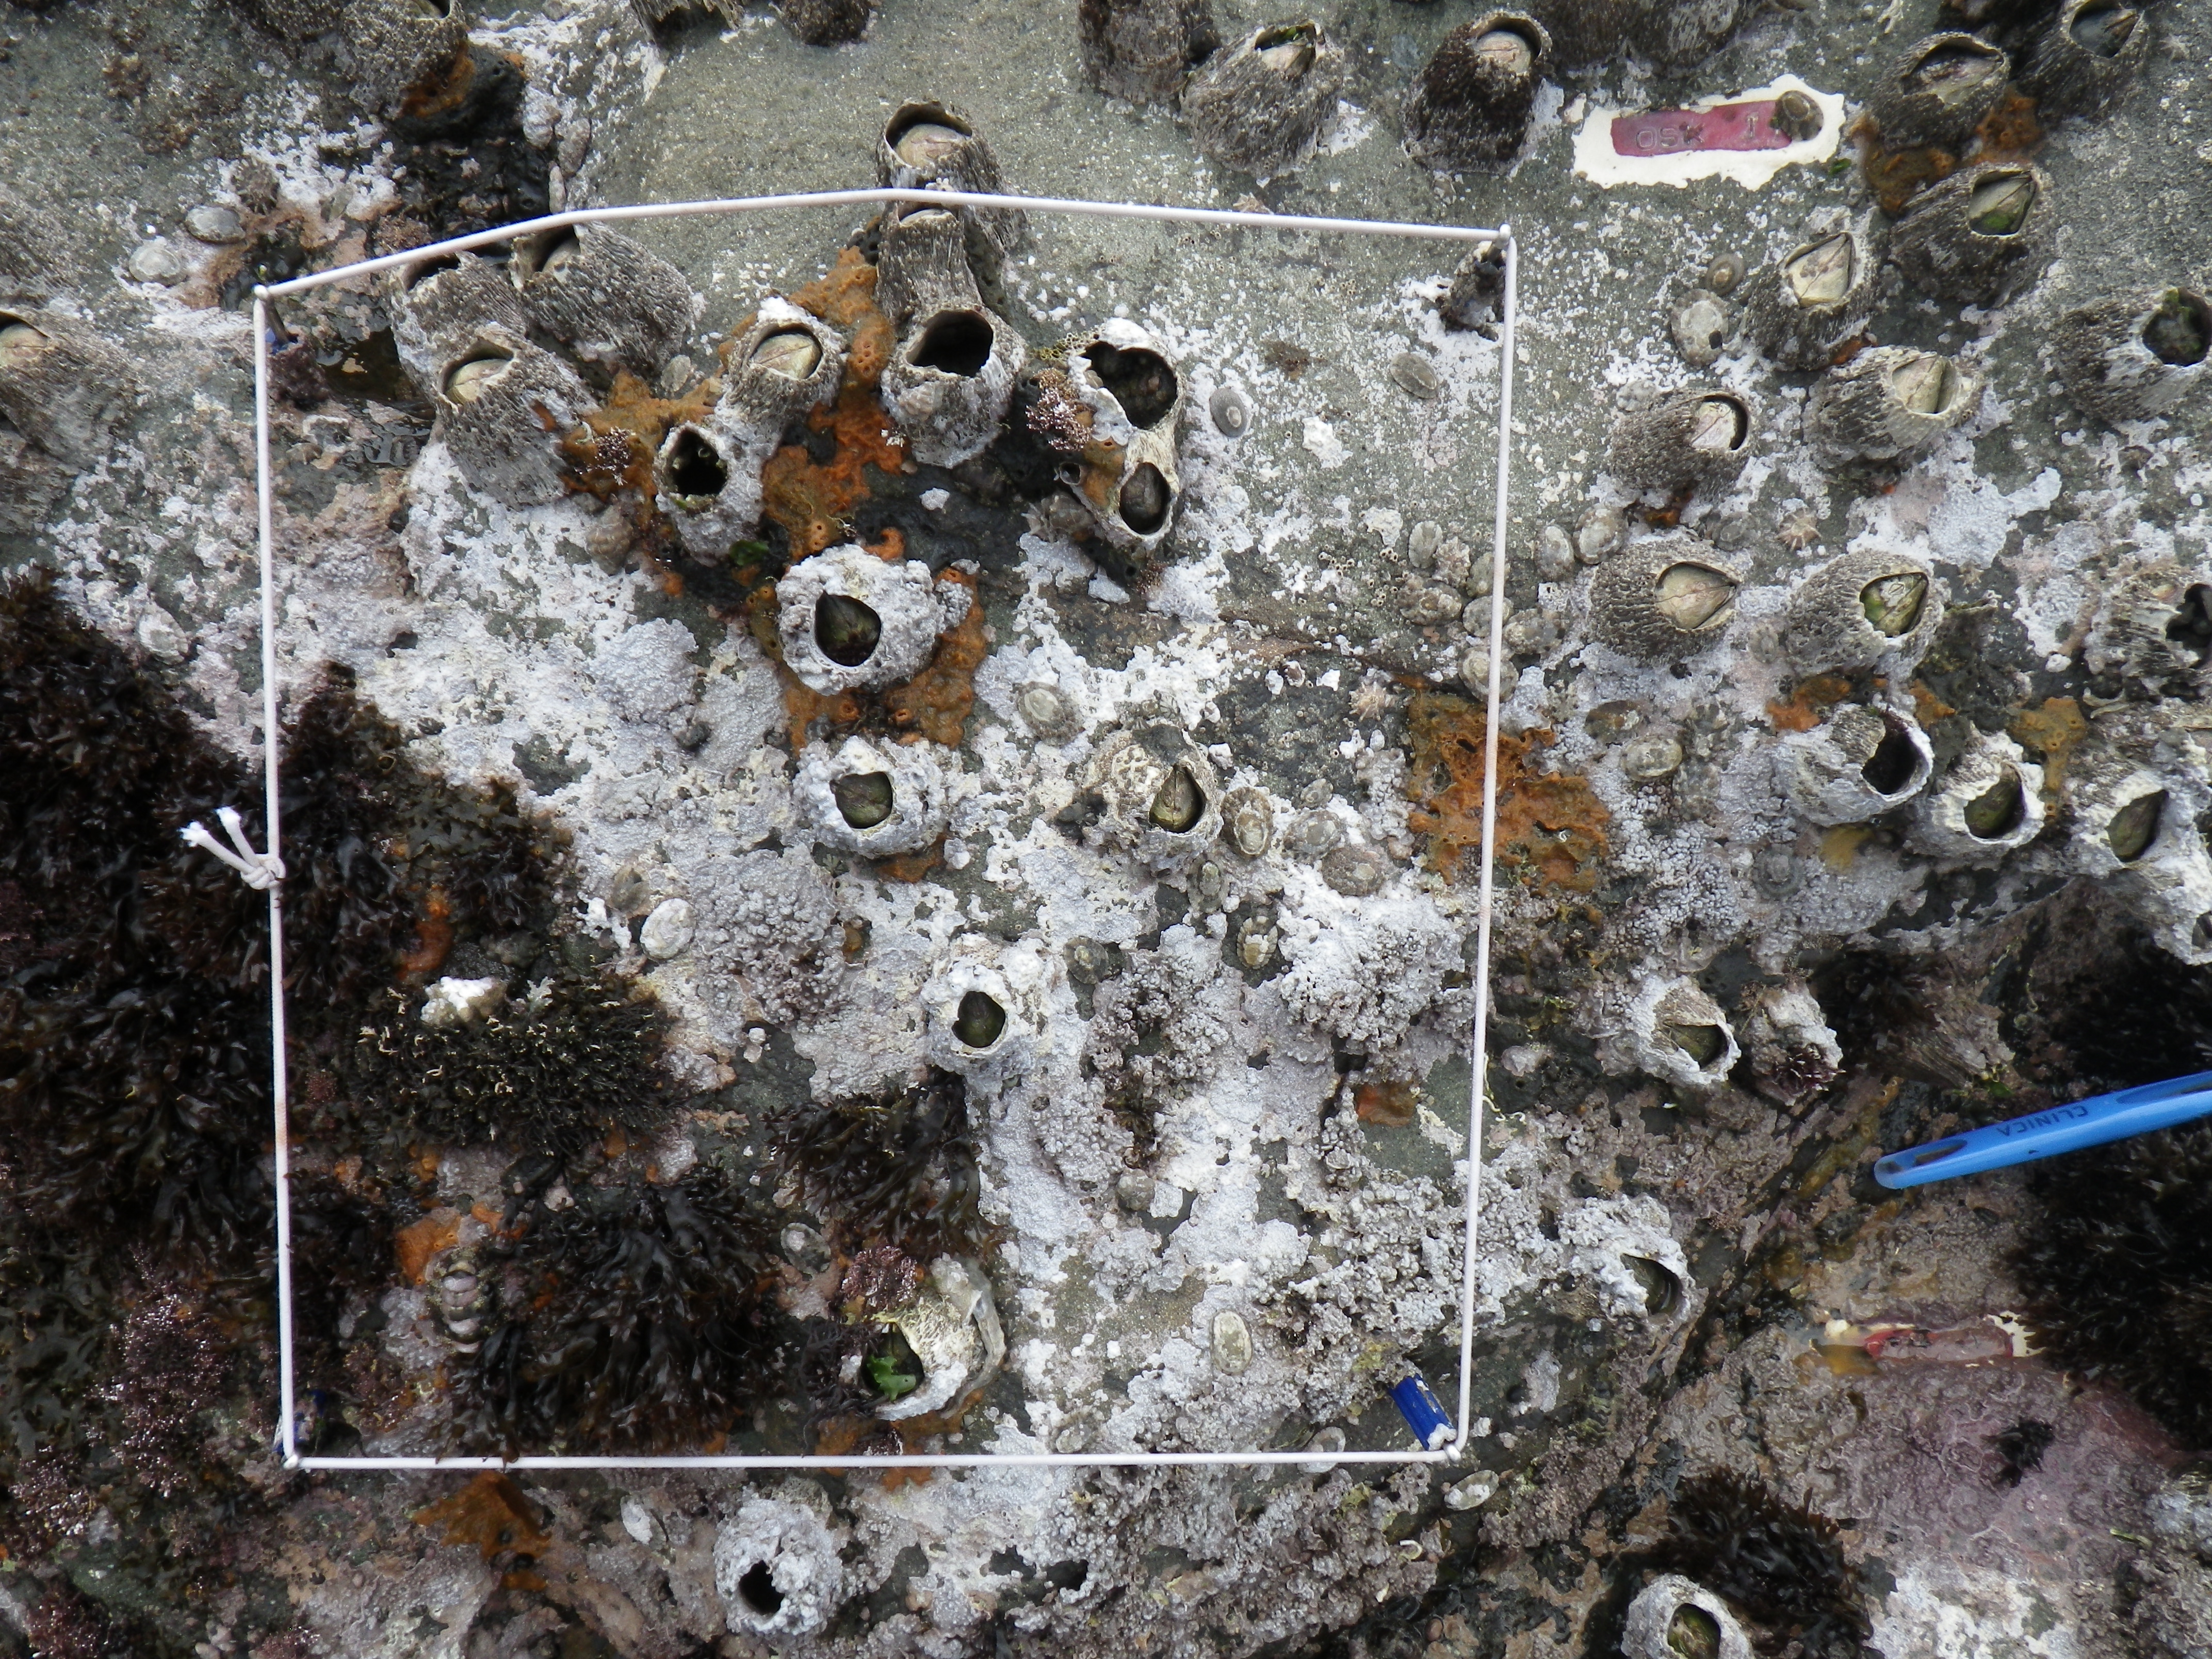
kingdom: Animalia
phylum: Arthropoda
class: Maxillopoda
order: Sessilia
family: Chthamalidae
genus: Chthamalus
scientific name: Chthamalus challengeri
